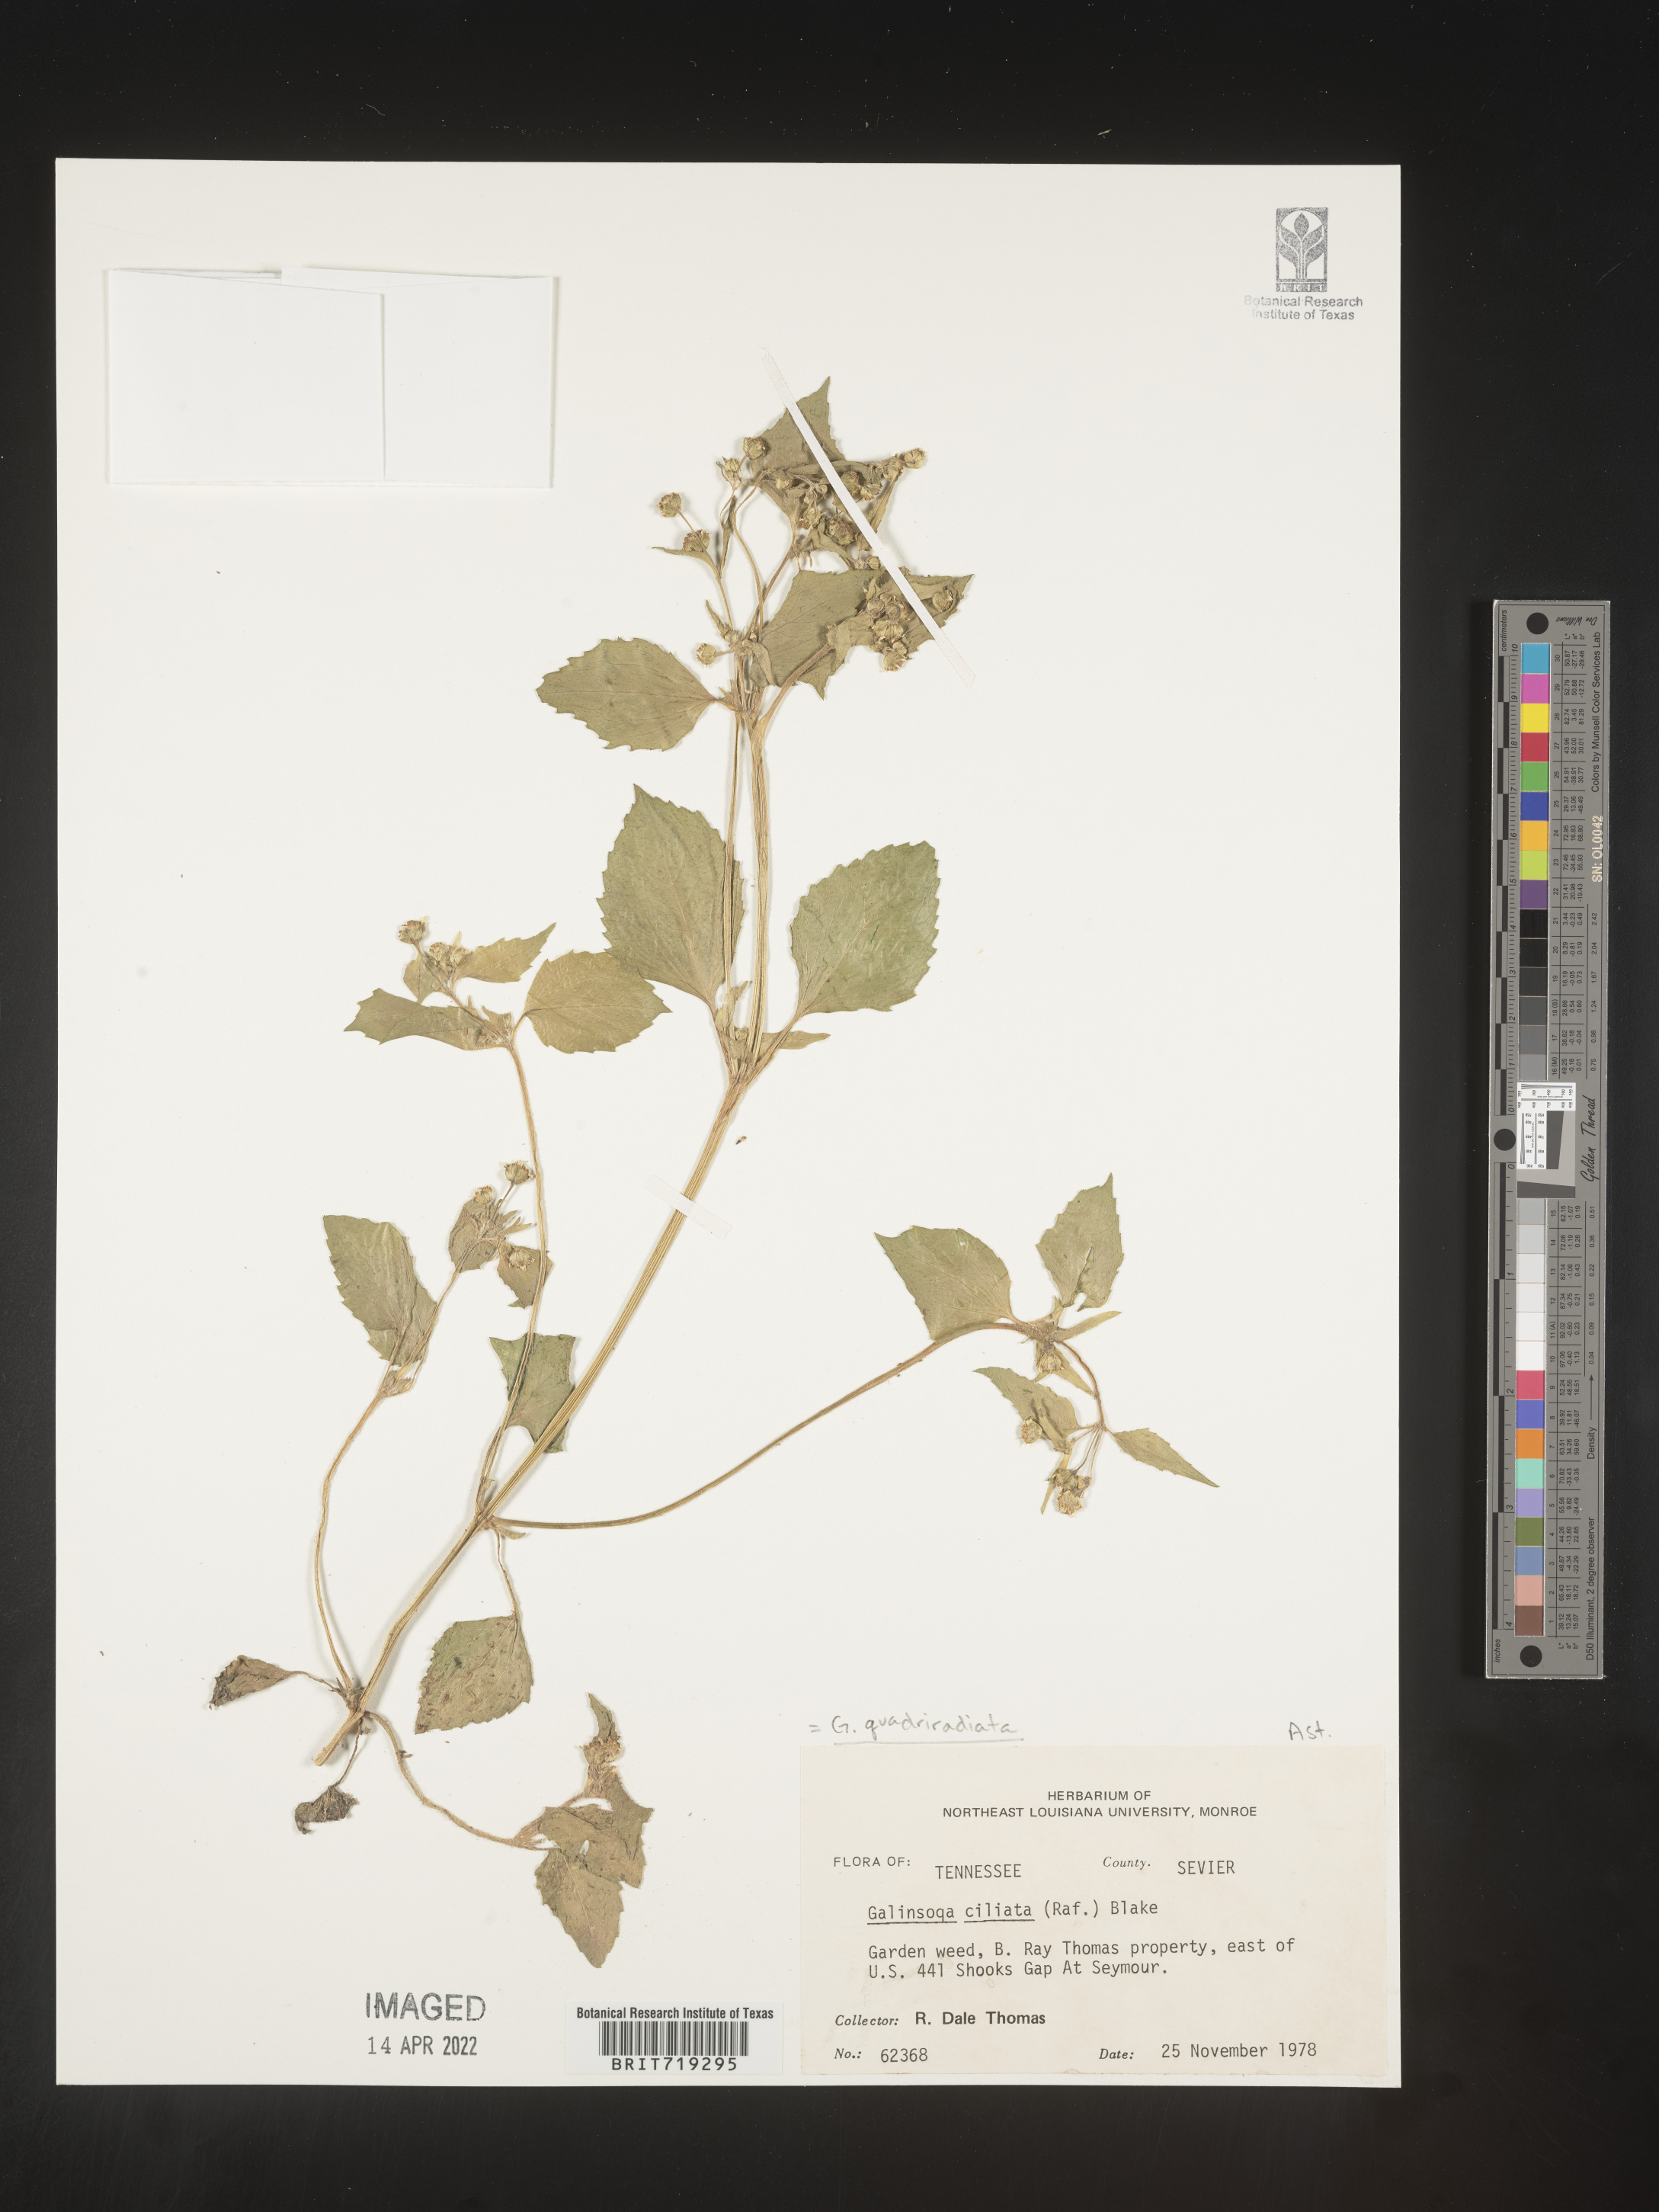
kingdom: Plantae
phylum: Tracheophyta
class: Magnoliopsida
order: Asterales
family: Asteraceae
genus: Galinsoga
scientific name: Galinsoga
